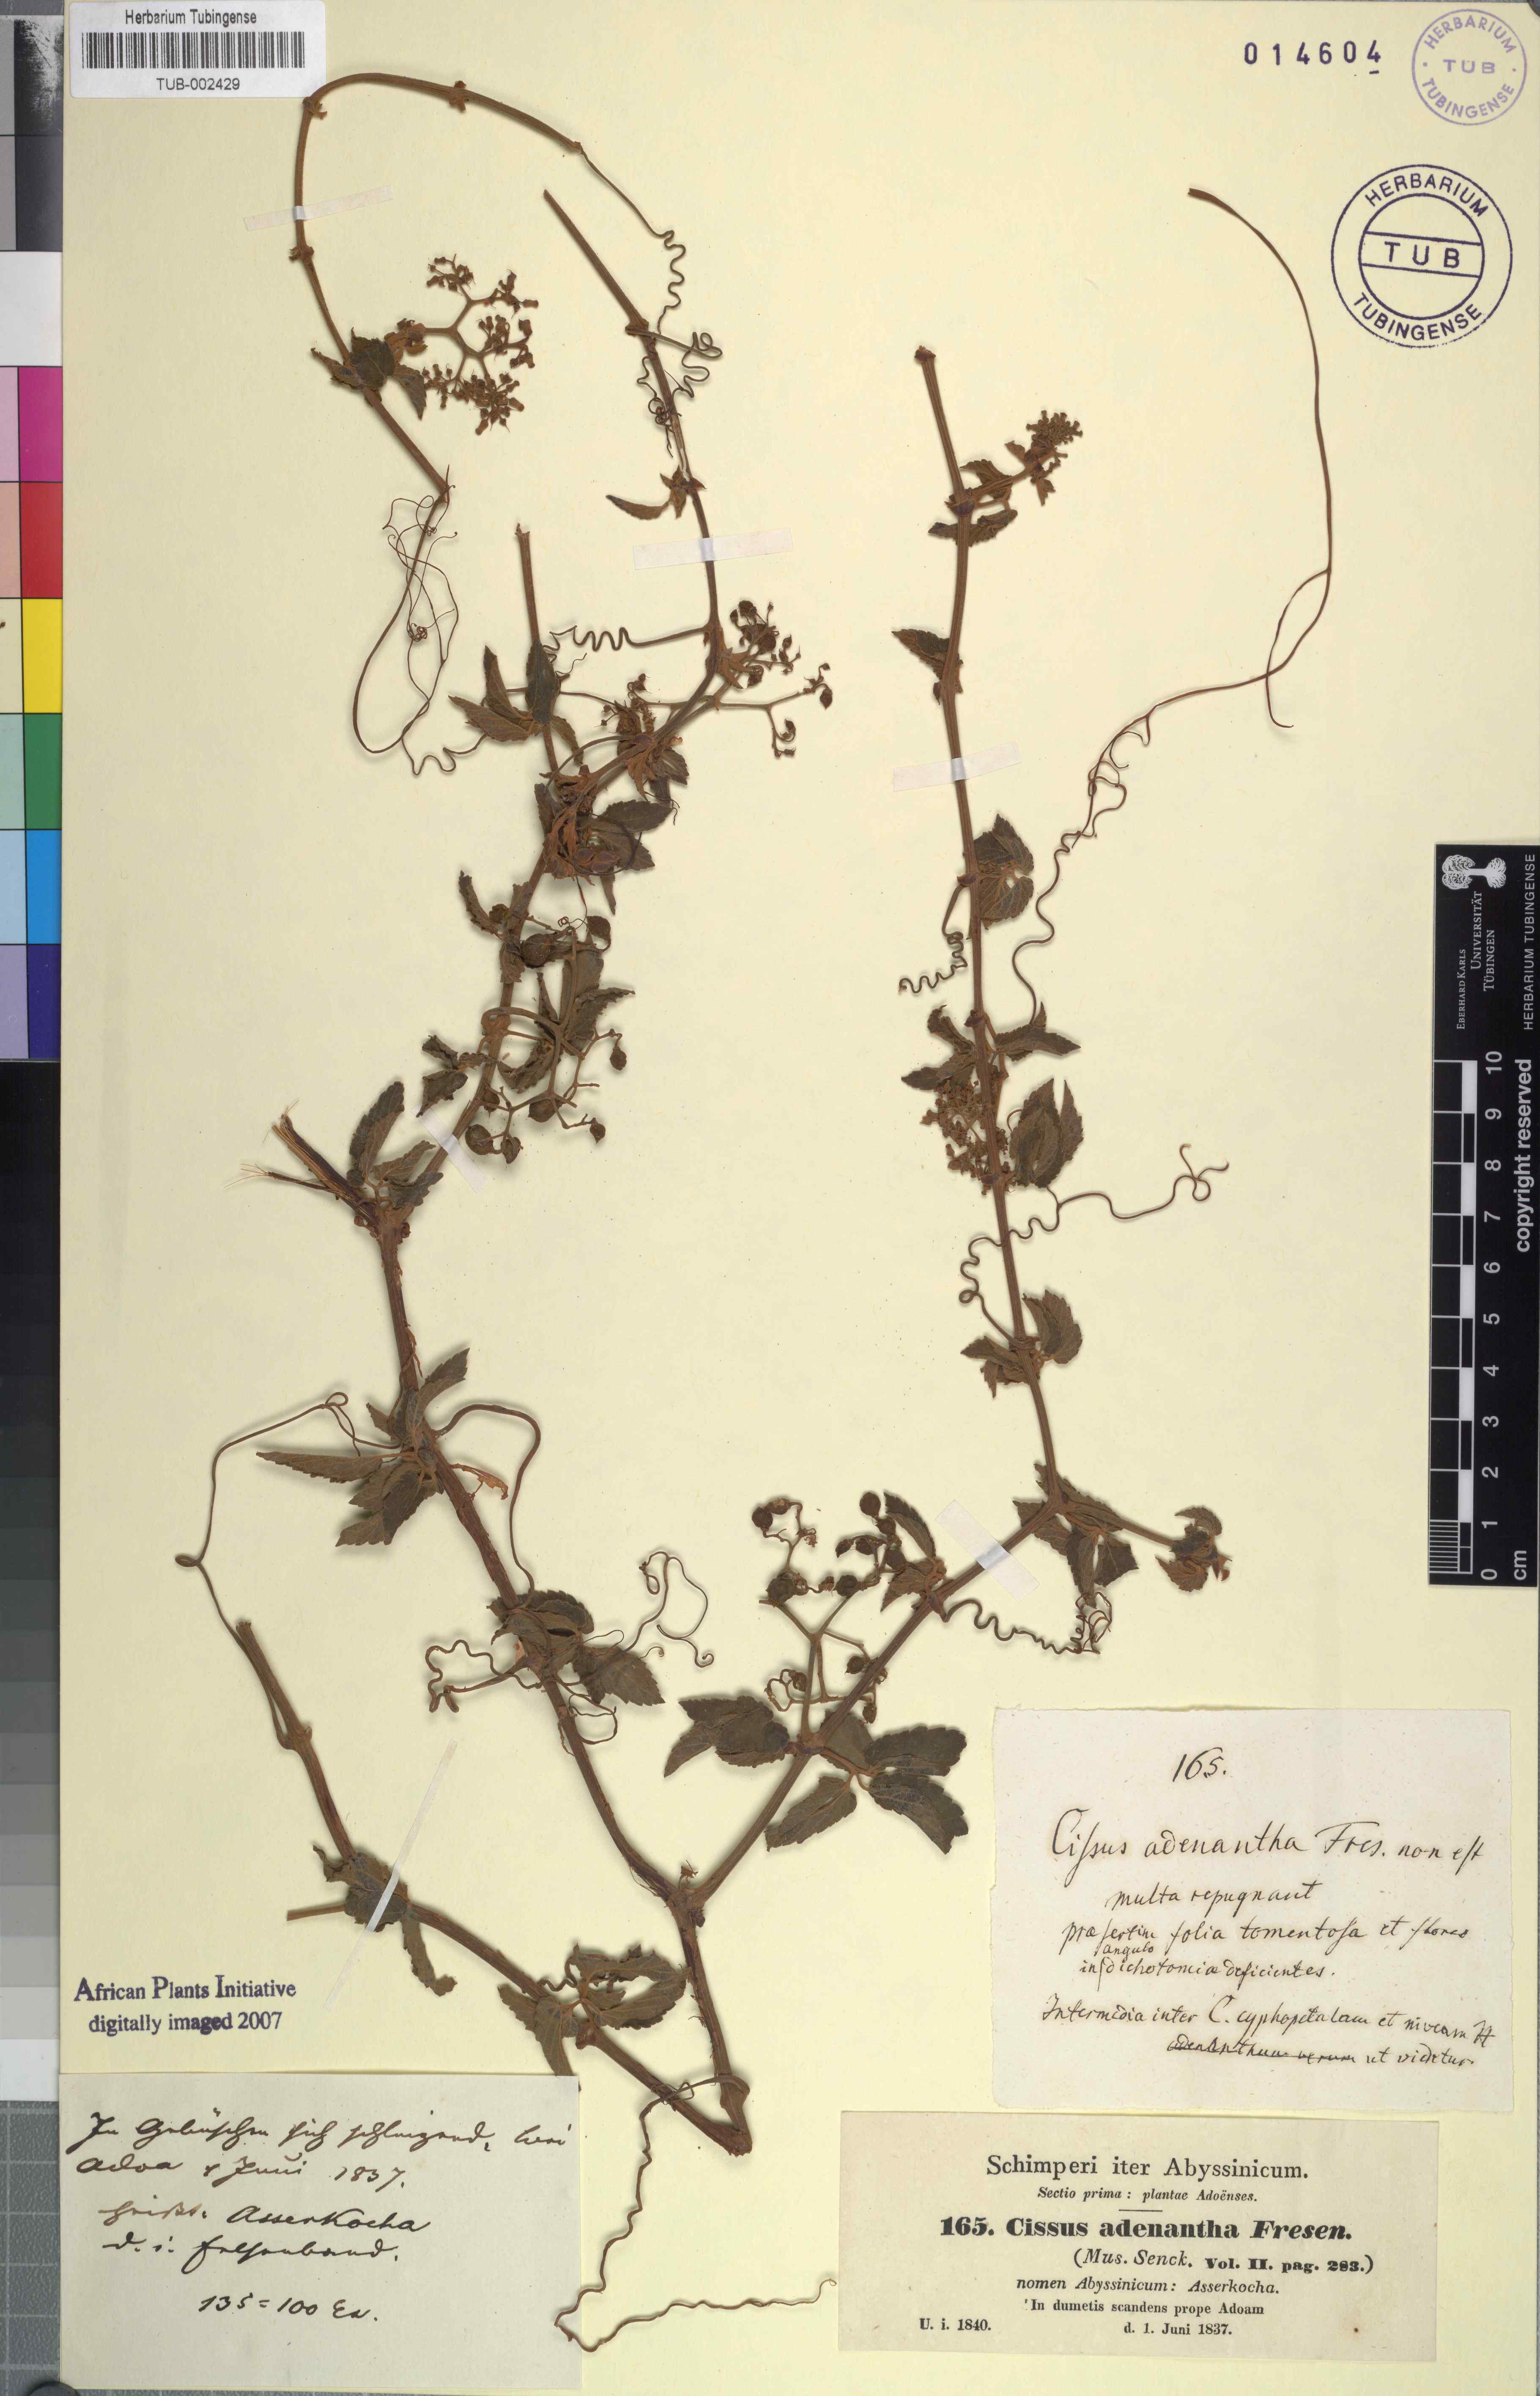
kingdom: Plantae
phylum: Tracheophyta
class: Magnoliopsida
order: Vitales
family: Vitaceae
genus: Cyphostemma
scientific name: Cyphostemma adenanthum
